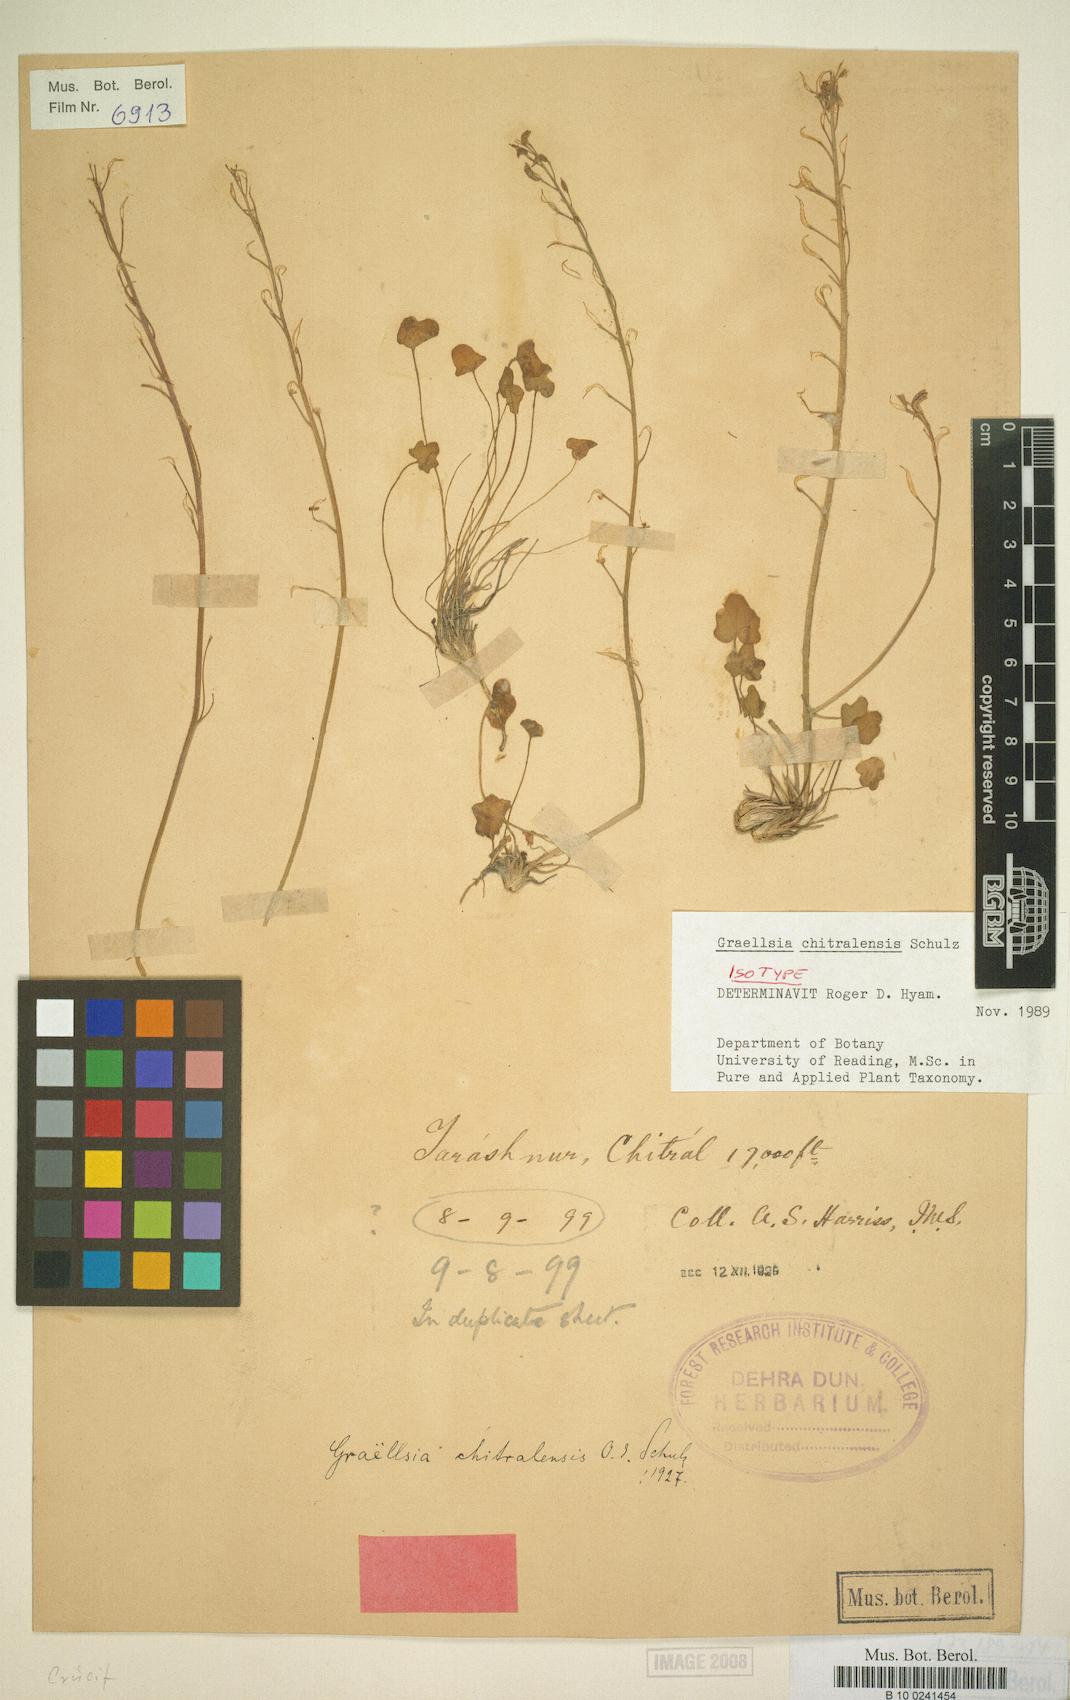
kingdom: Plantae
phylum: Tracheophyta
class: Magnoliopsida
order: Brassicales
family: Brassicaceae
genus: Graellsia
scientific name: Graellsia chitralensis
